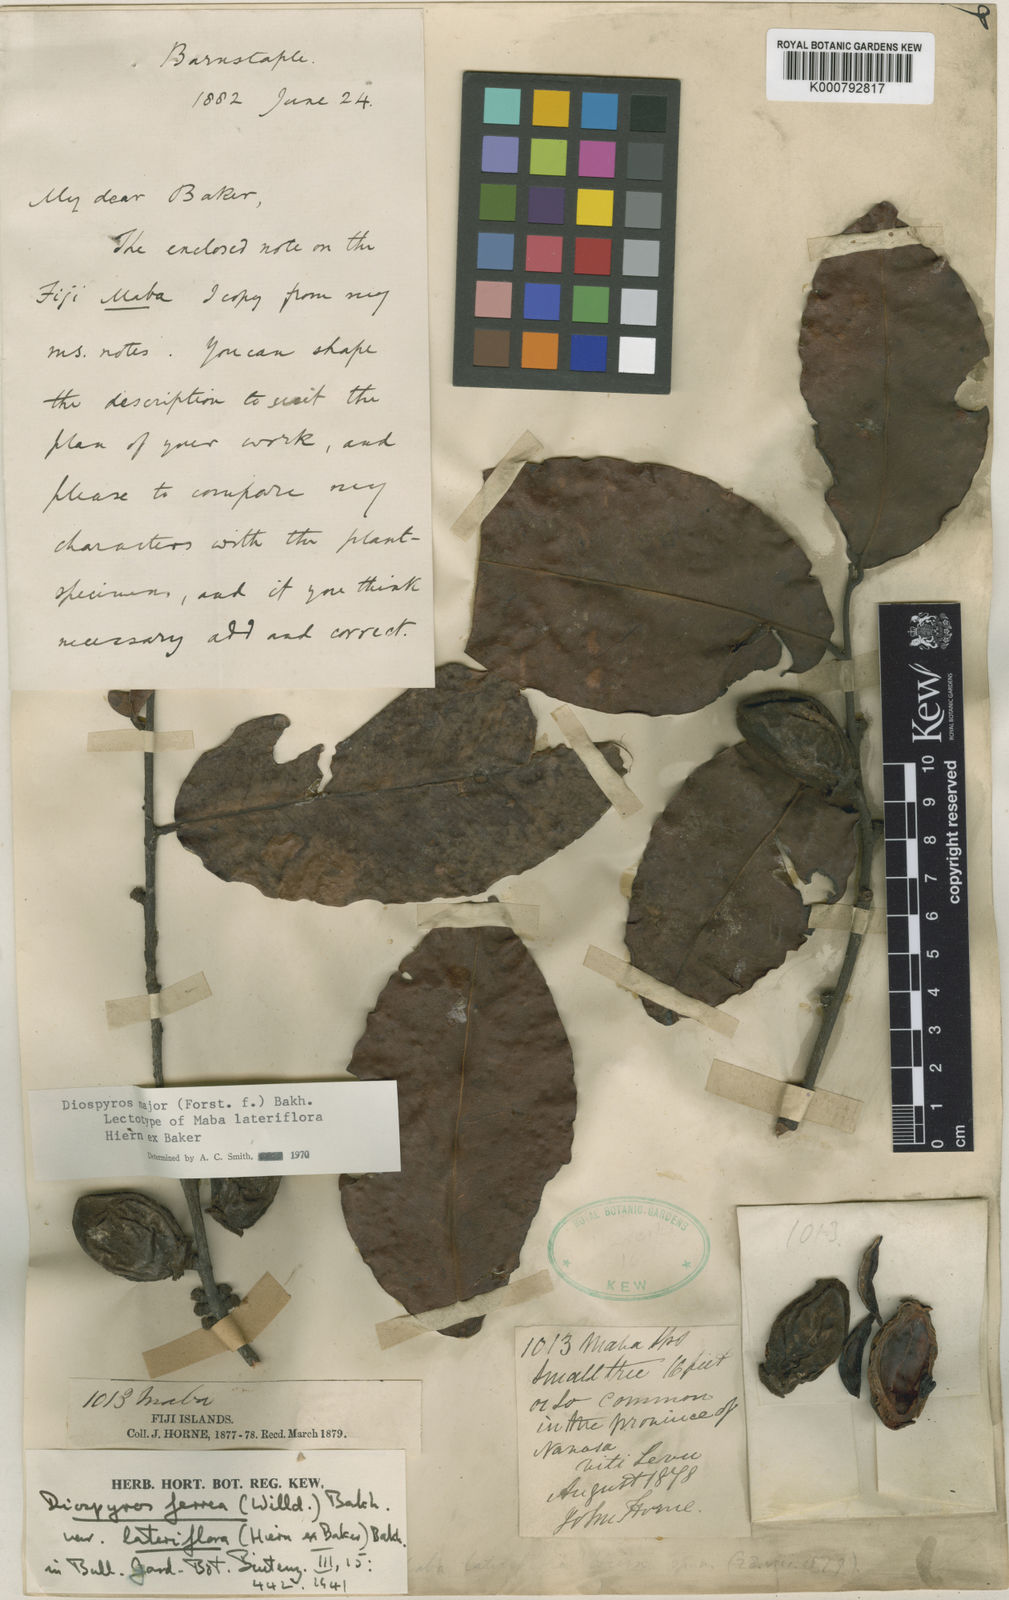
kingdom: Plantae
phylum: Tracheophyta
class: Magnoliopsida
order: Ericales
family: Ebenaceae
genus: Diospyros
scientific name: Diospyros ferrea
